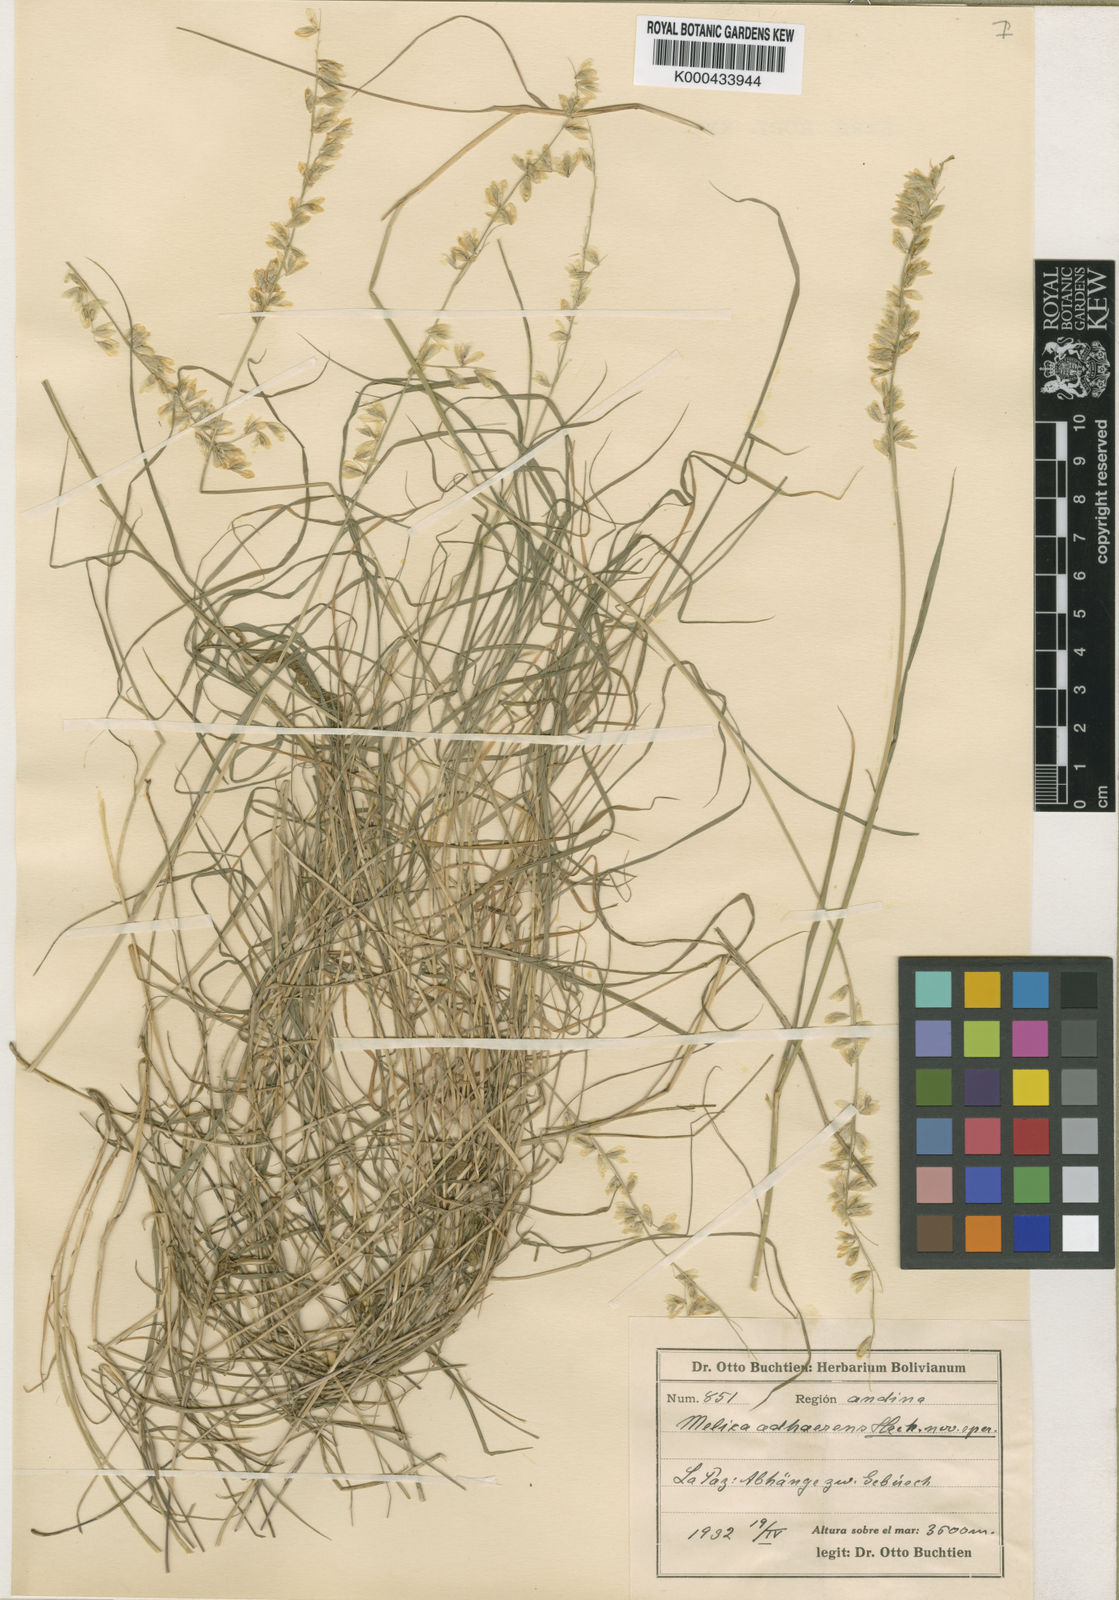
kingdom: Plantae
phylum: Tracheophyta
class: Liliopsida
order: Poales
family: Poaceae
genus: Melica
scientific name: Melica chilensis
